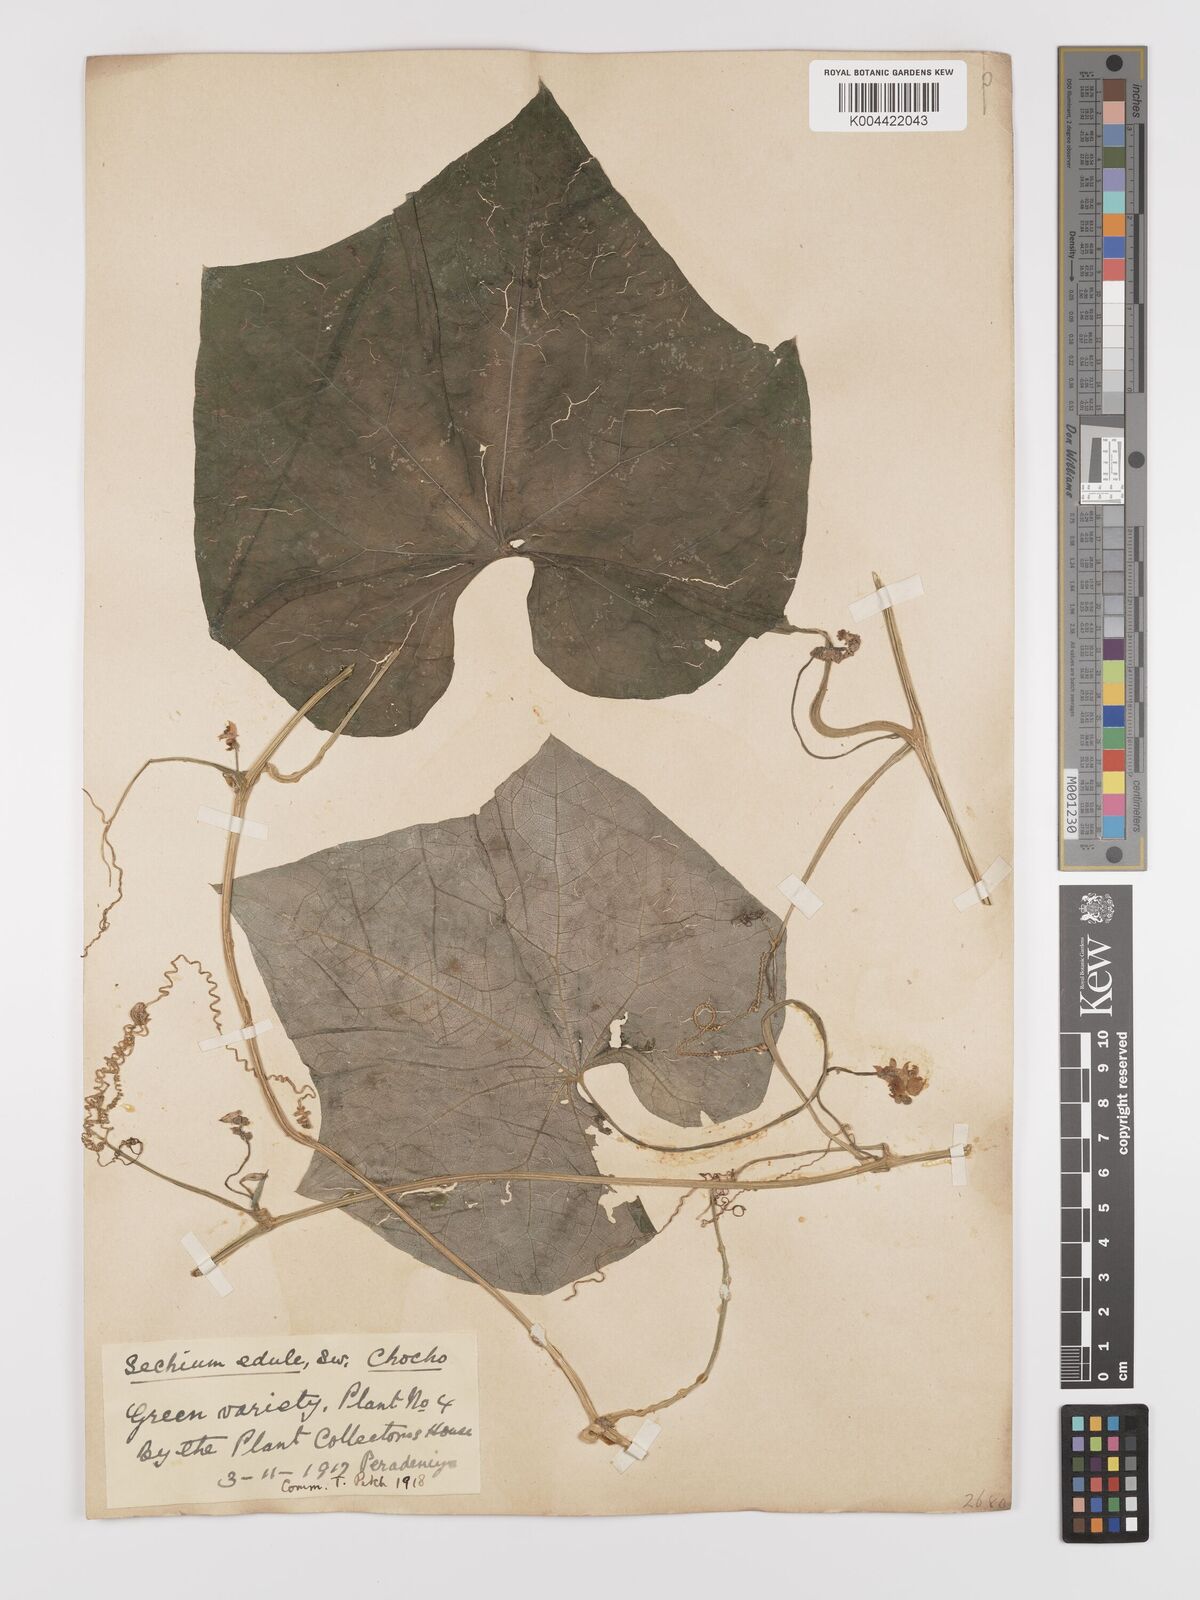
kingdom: Plantae
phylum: Tracheophyta
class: Magnoliopsida
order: Cucurbitales
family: Cucurbitaceae
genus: Sechium
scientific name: Sechium edule
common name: Chayote
